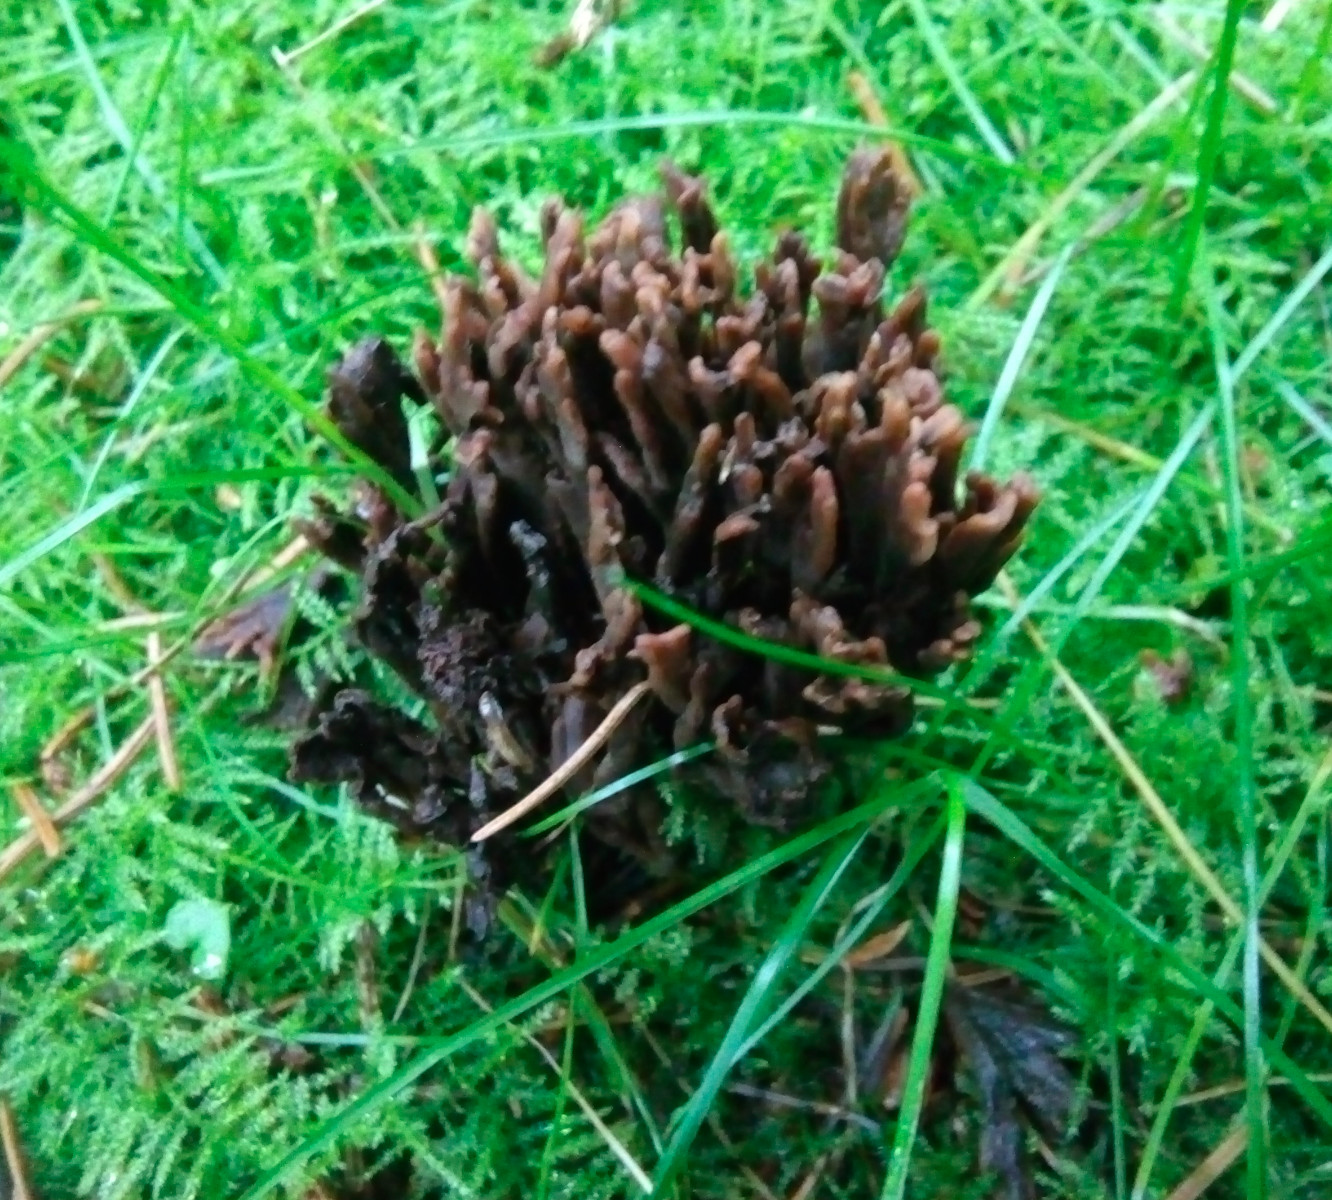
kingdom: Fungi
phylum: Basidiomycota
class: Agaricomycetes
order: Thelephorales
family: Thelephoraceae
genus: Thelephora
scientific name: Thelephora palmata
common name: grenet frynsesvamp
